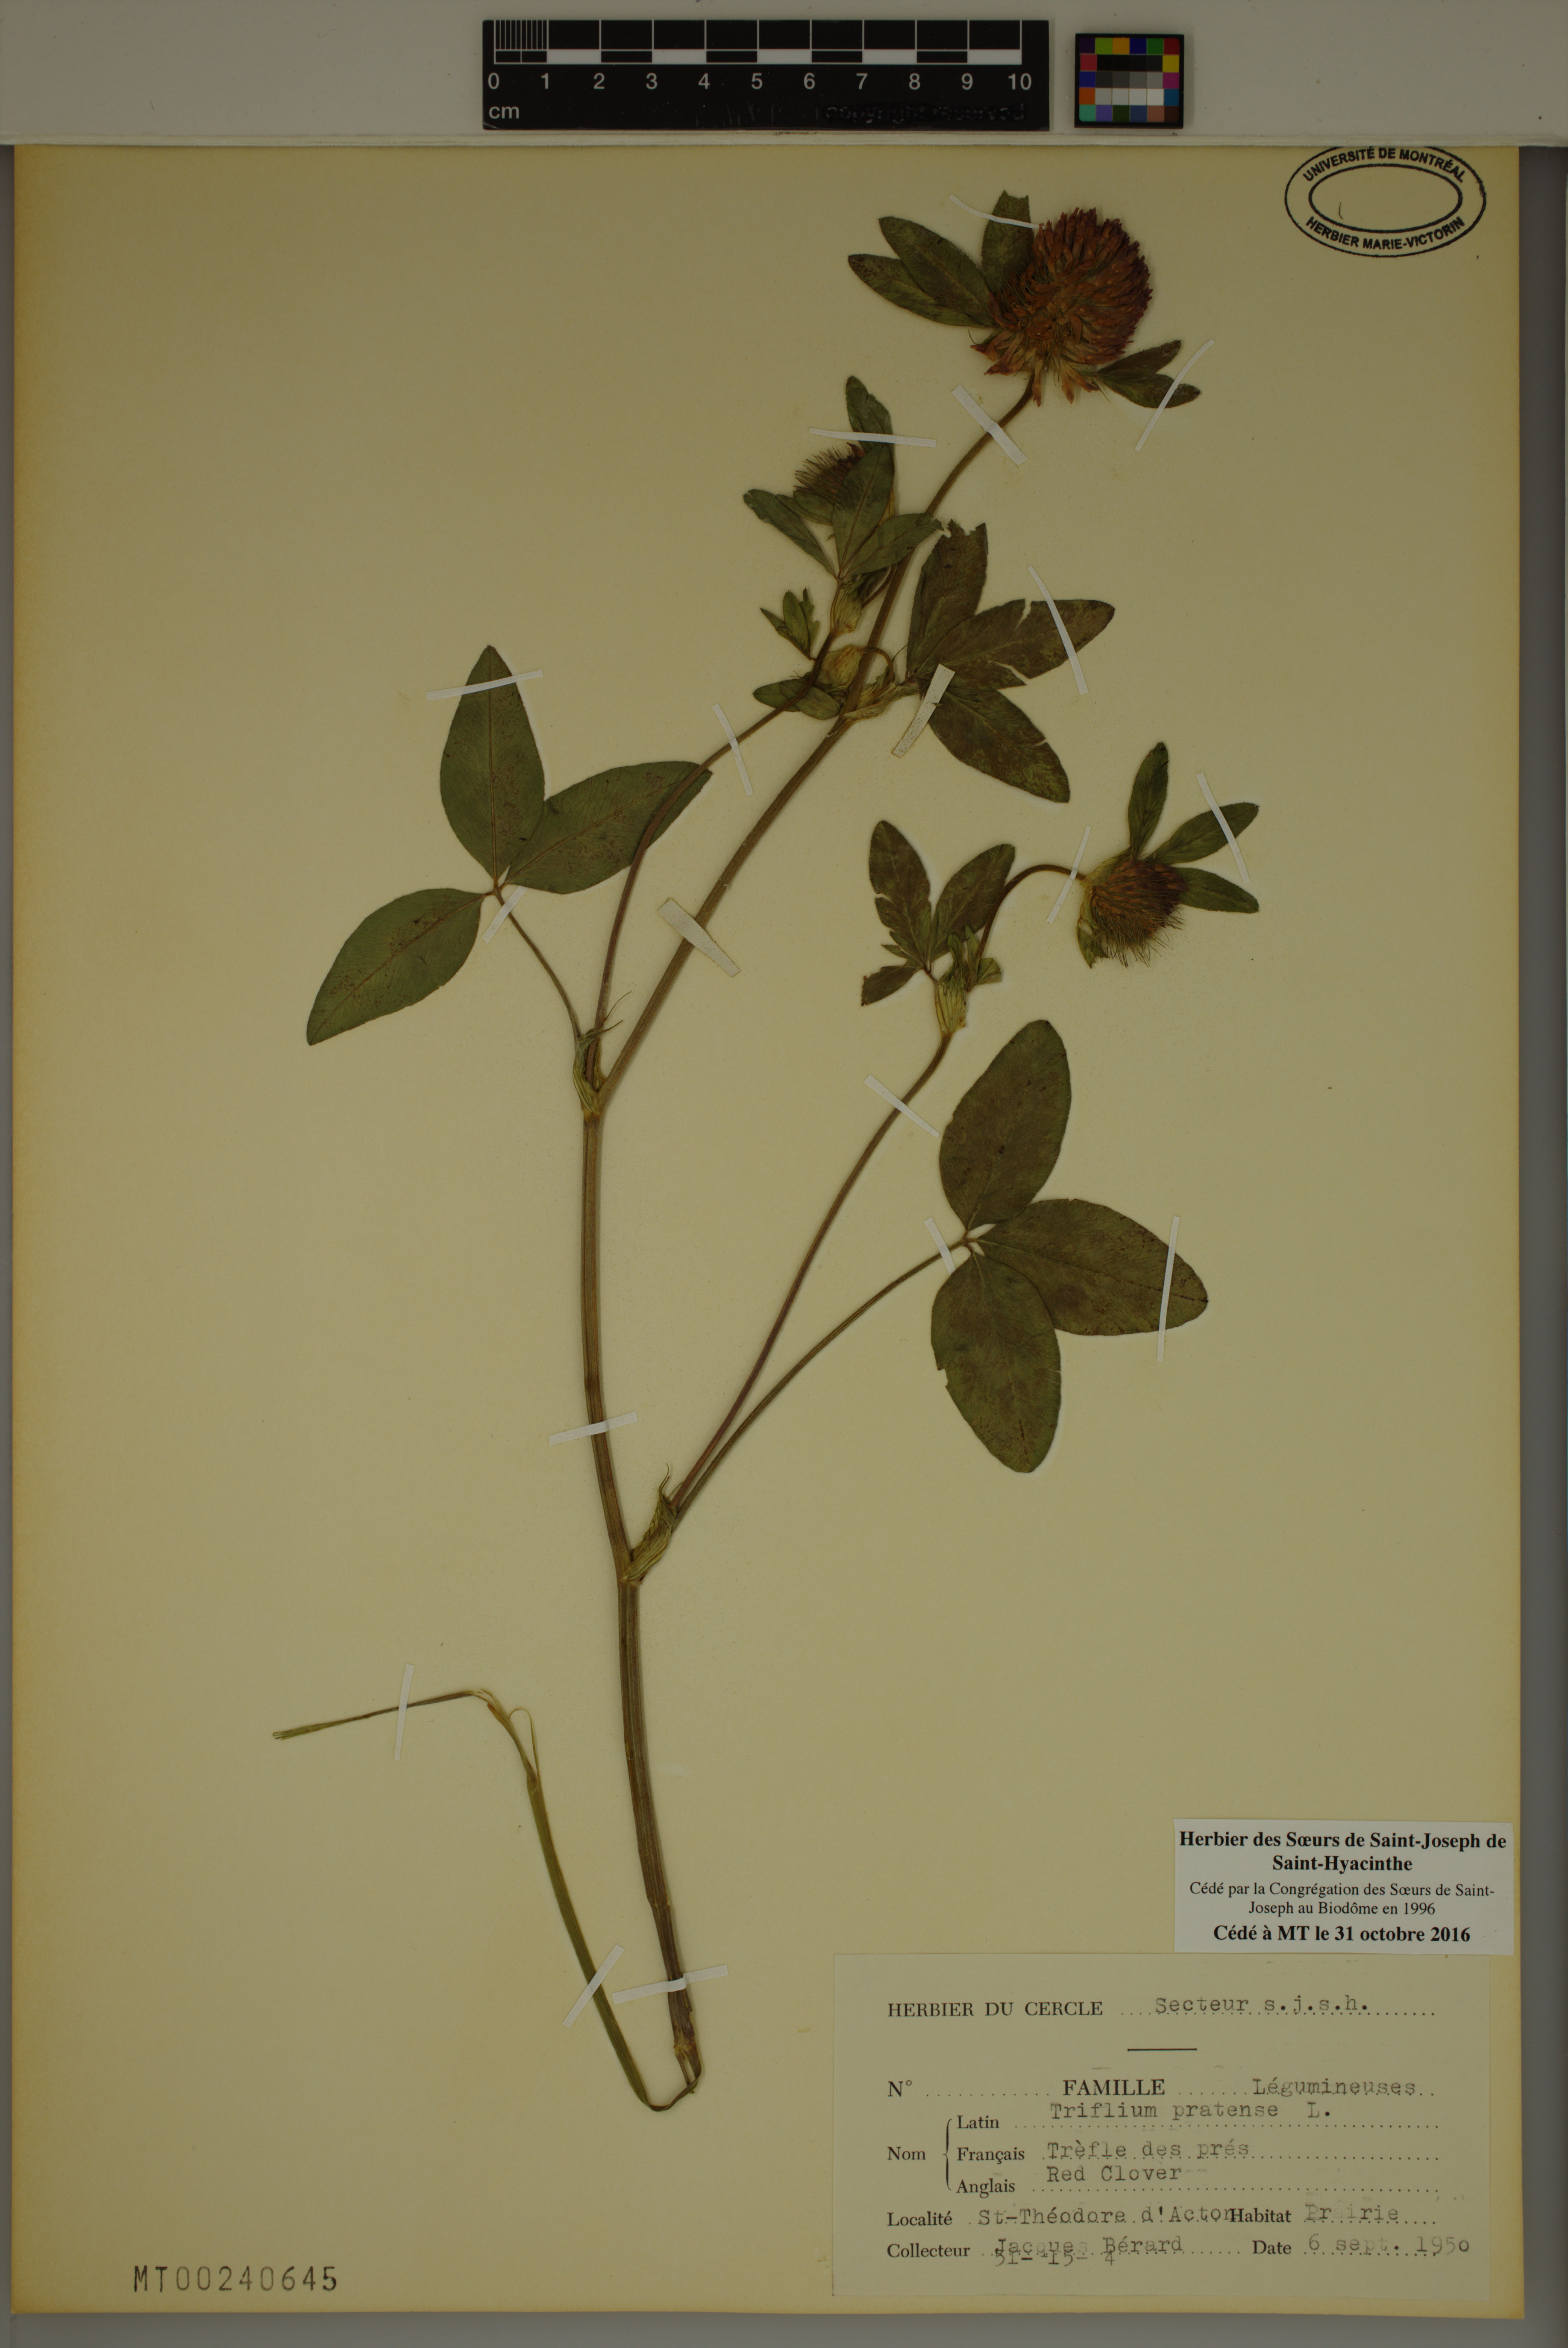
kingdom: Plantae
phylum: Tracheophyta
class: Magnoliopsida
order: Fabales
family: Fabaceae
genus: Trifolium
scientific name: Trifolium pratense
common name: Red clover
